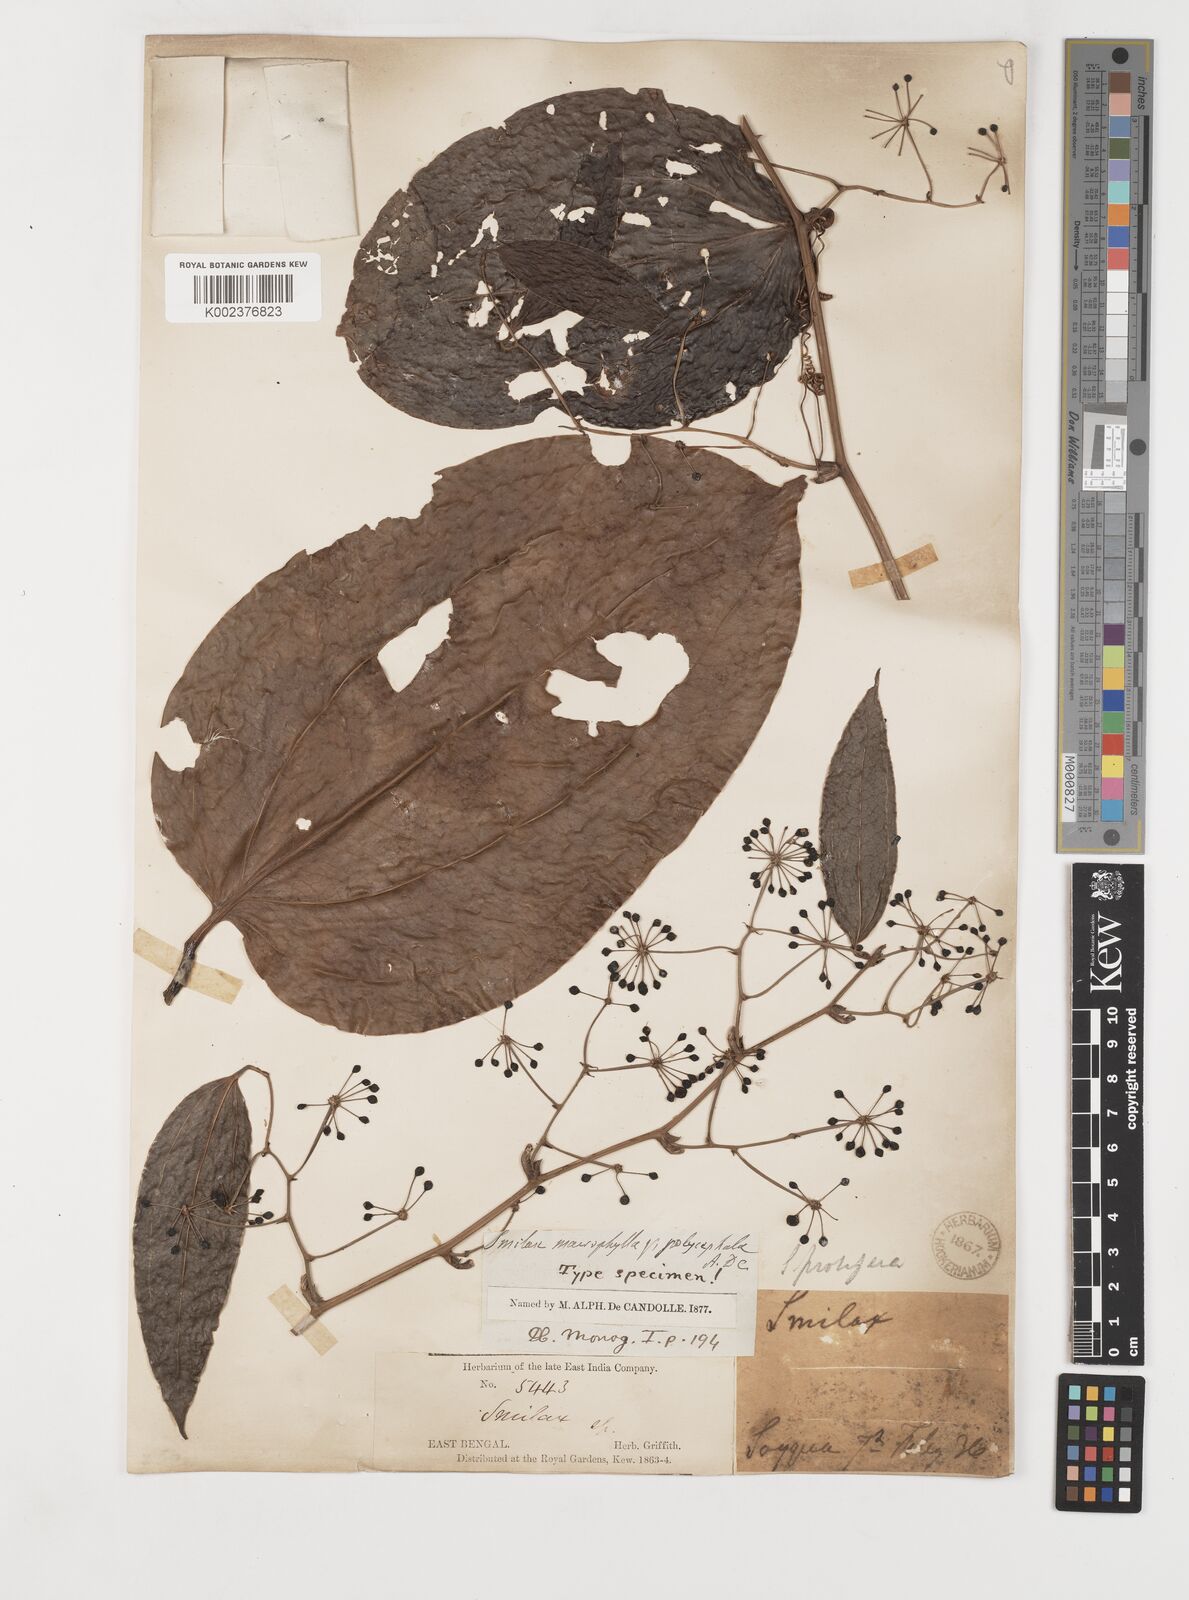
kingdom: Plantae
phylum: Tracheophyta
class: Liliopsida
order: Liliales
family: Smilacaceae
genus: Smilax
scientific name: Smilax prolifera
